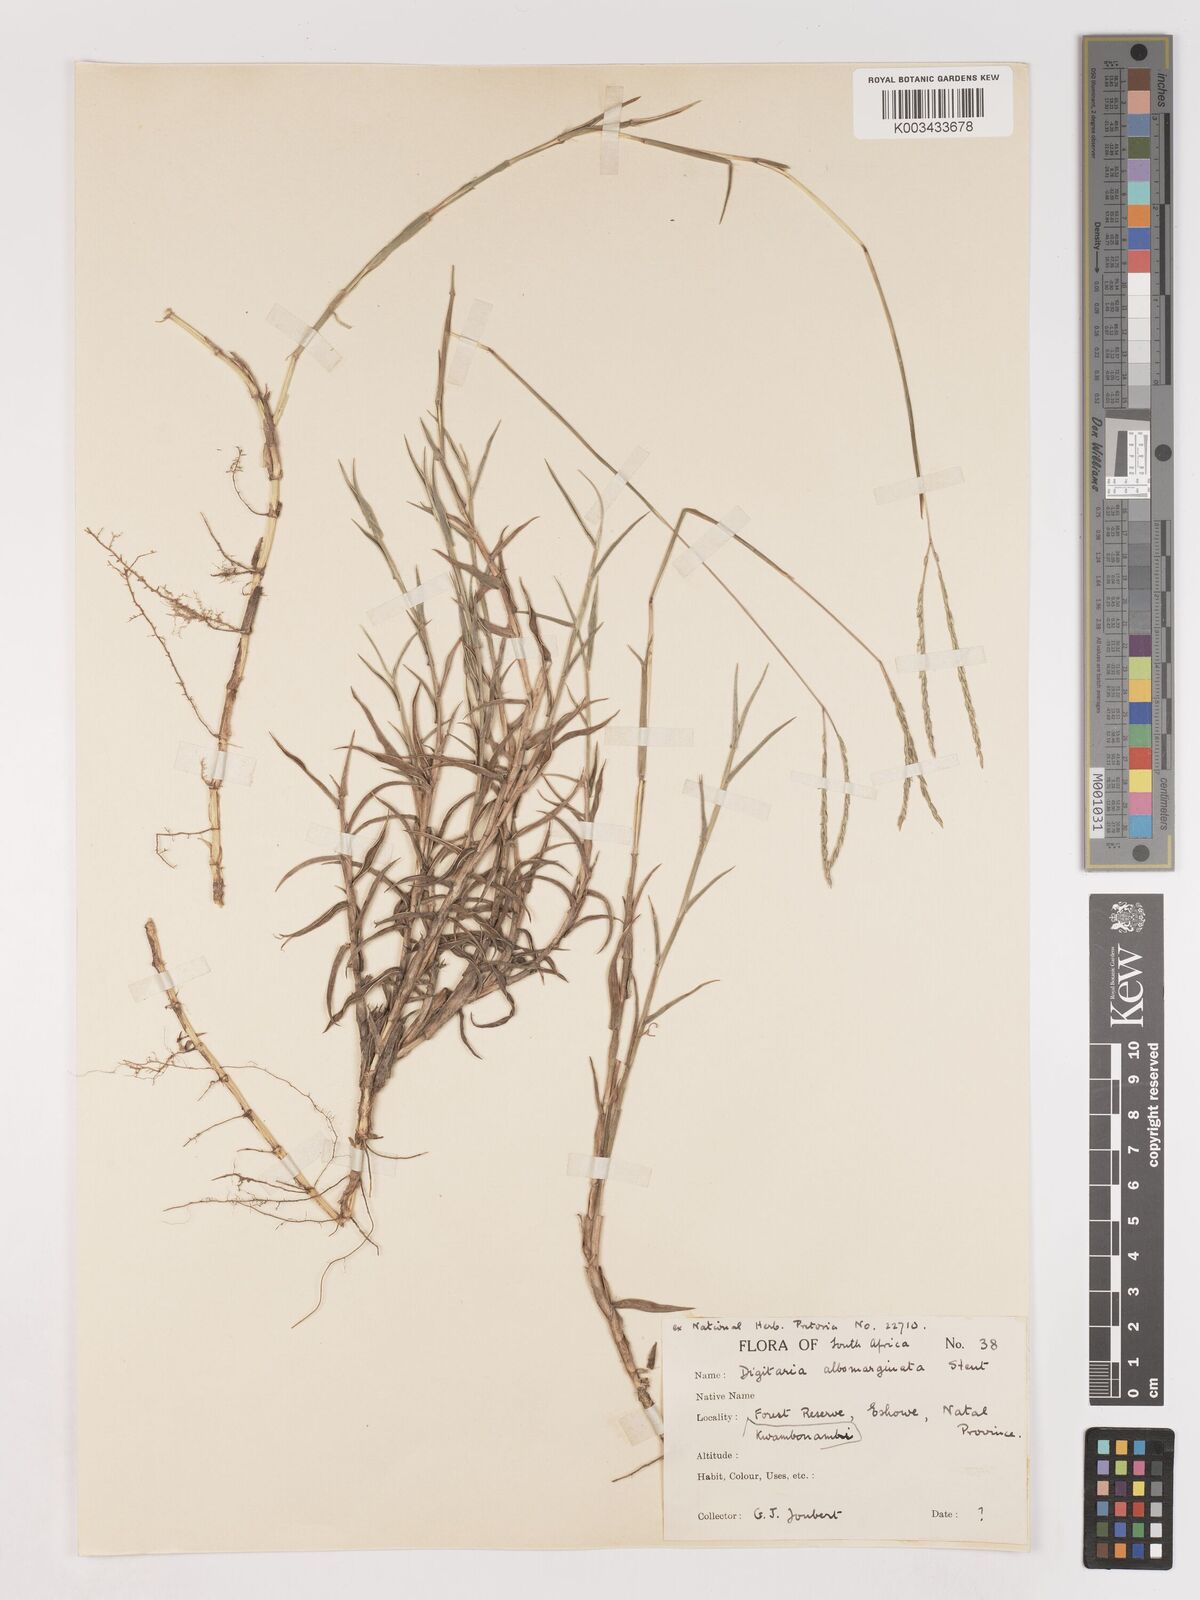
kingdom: Plantae
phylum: Tracheophyta
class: Liliopsida
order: Poales
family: Poaceae
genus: Digitaria
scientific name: Digitaria diversinervis
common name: Richmond finger grass
